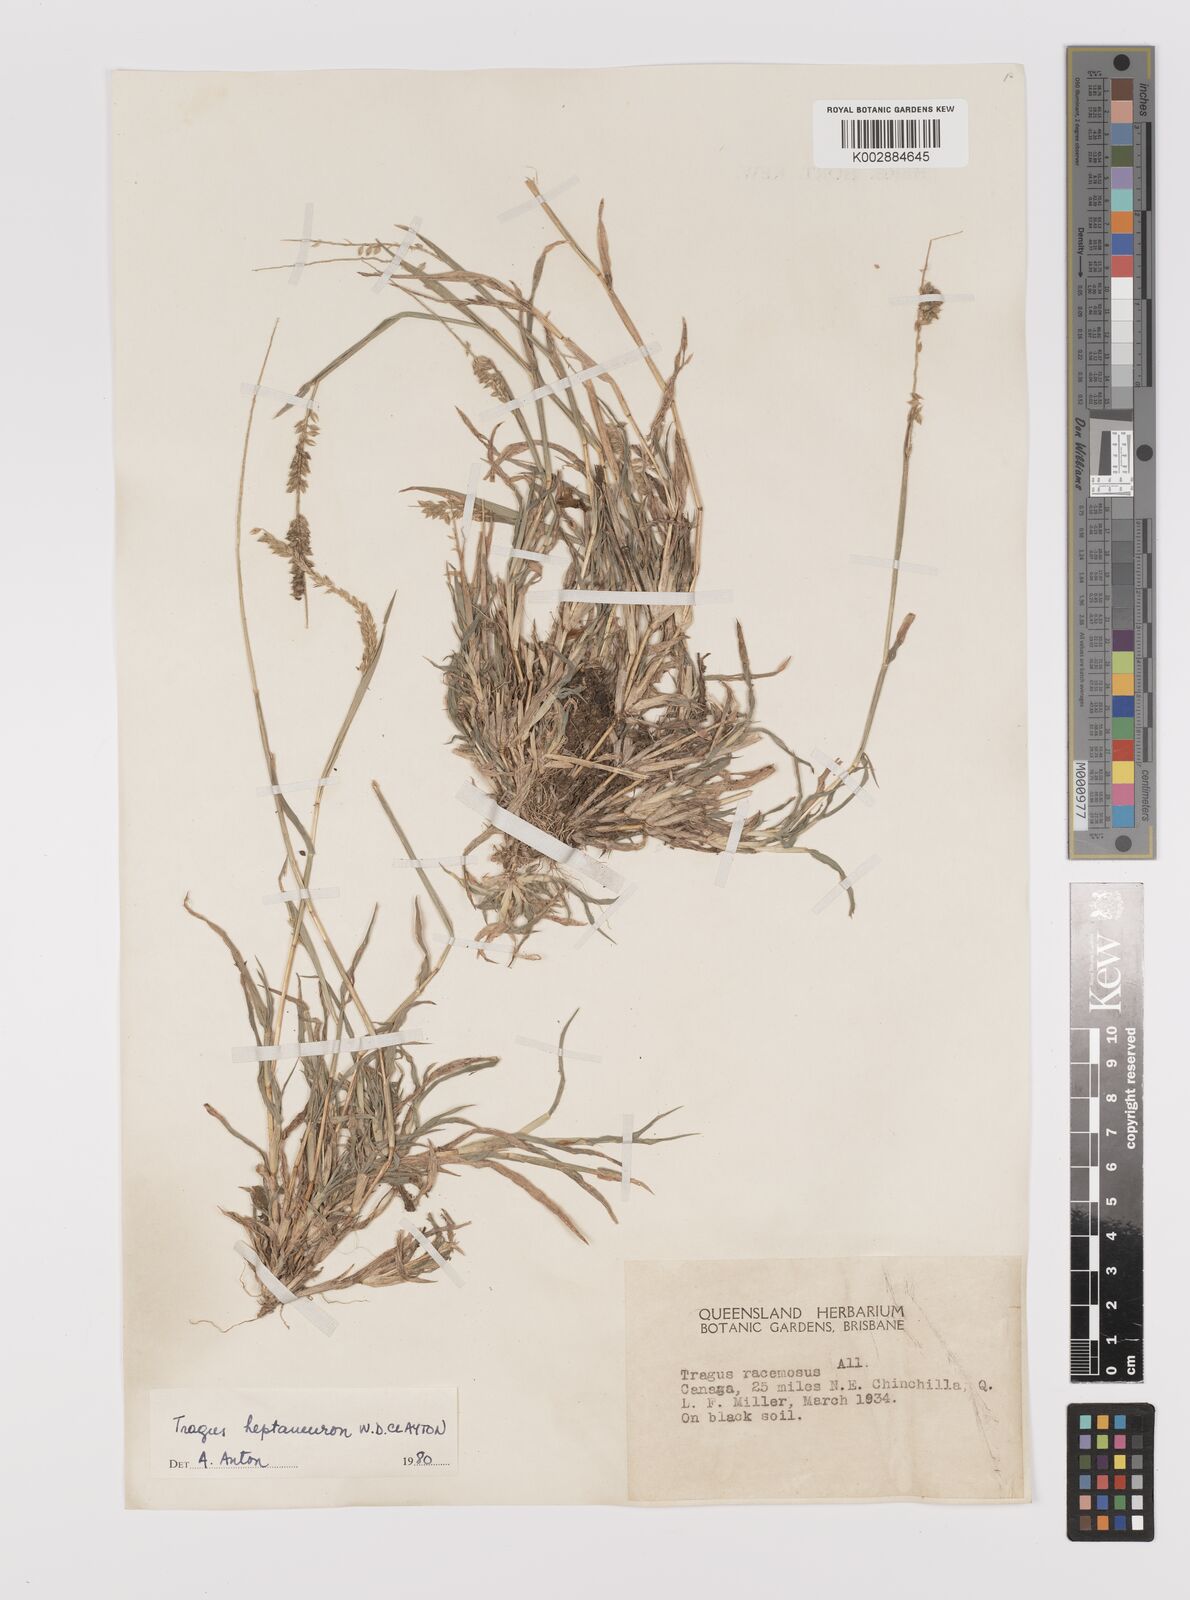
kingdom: Plantae
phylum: Tracheophyta
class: Liliopsida
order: Poales
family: Poaceae
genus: Tragus
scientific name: Tragus australianus
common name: Australian bur-grass
